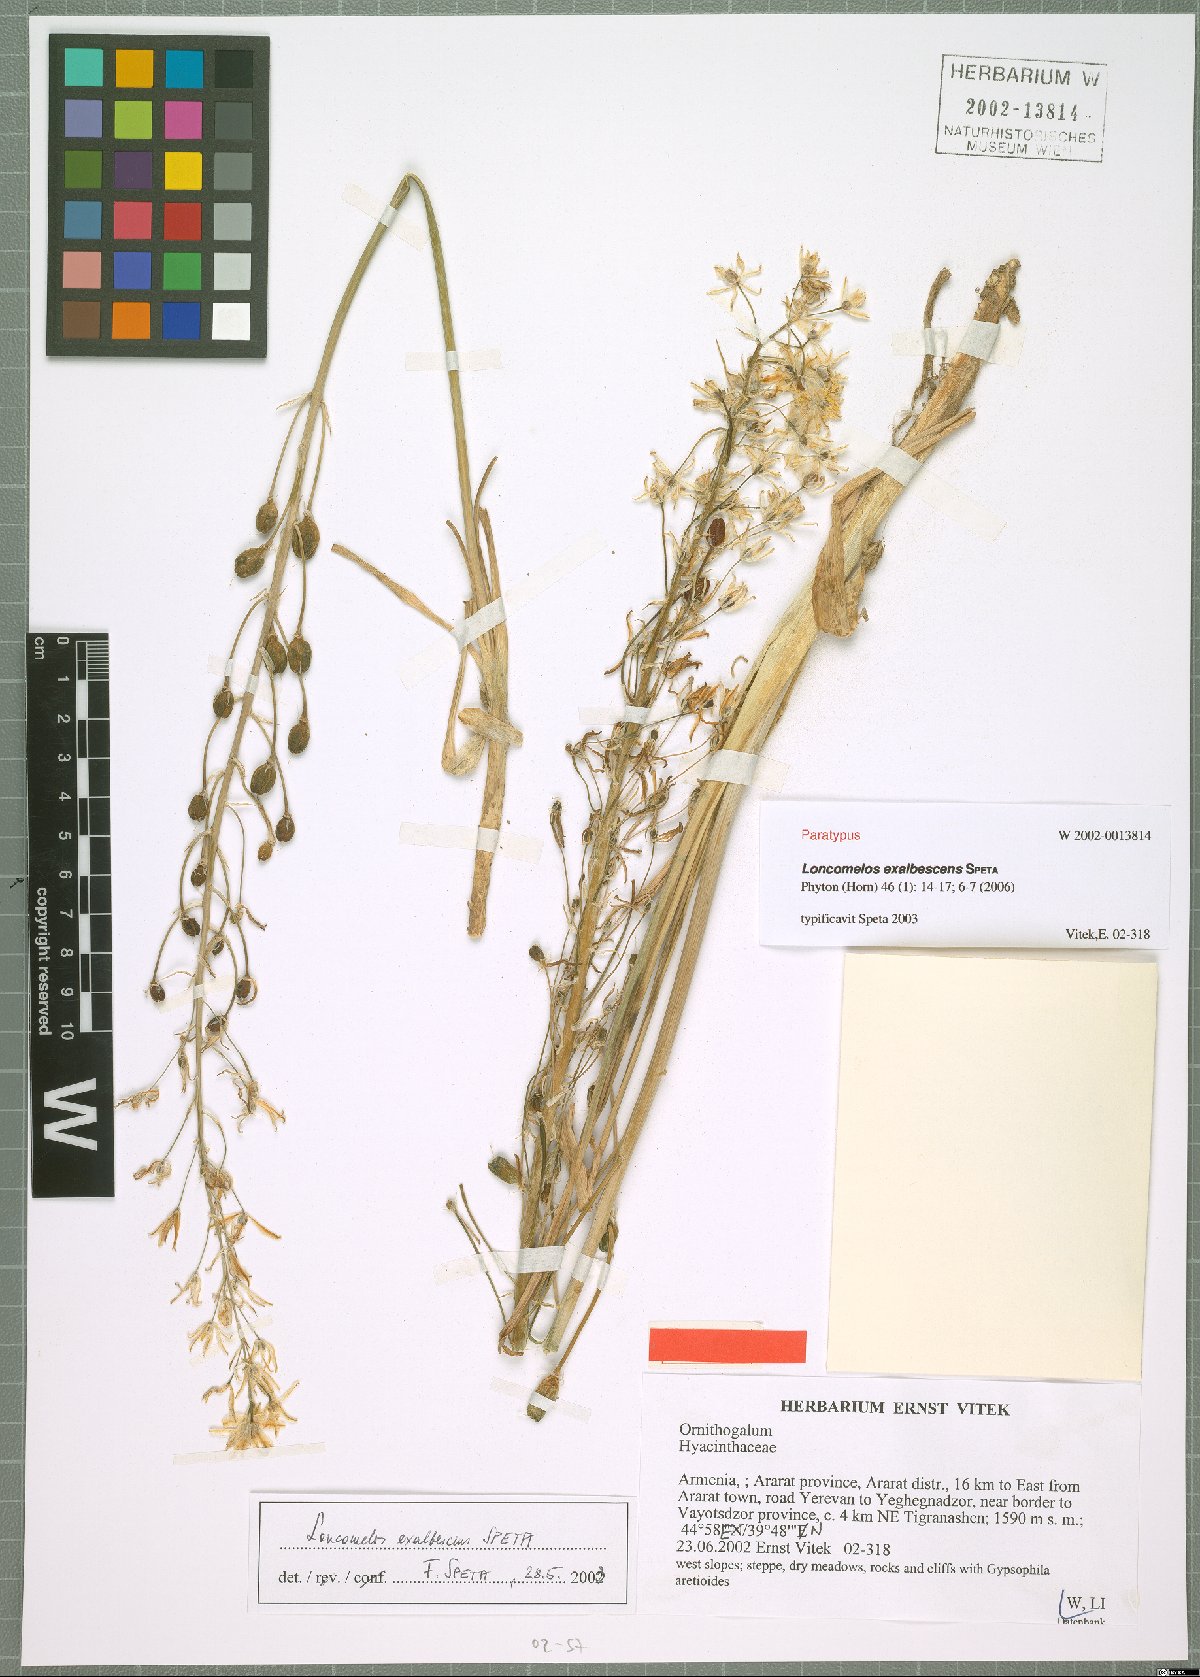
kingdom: Plantae
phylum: Tracheophyta
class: Liliopsida
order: Asparagales
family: Asparagaceae
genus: Ornithogalum
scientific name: Ornithogalum Loncomelos exalbescens
